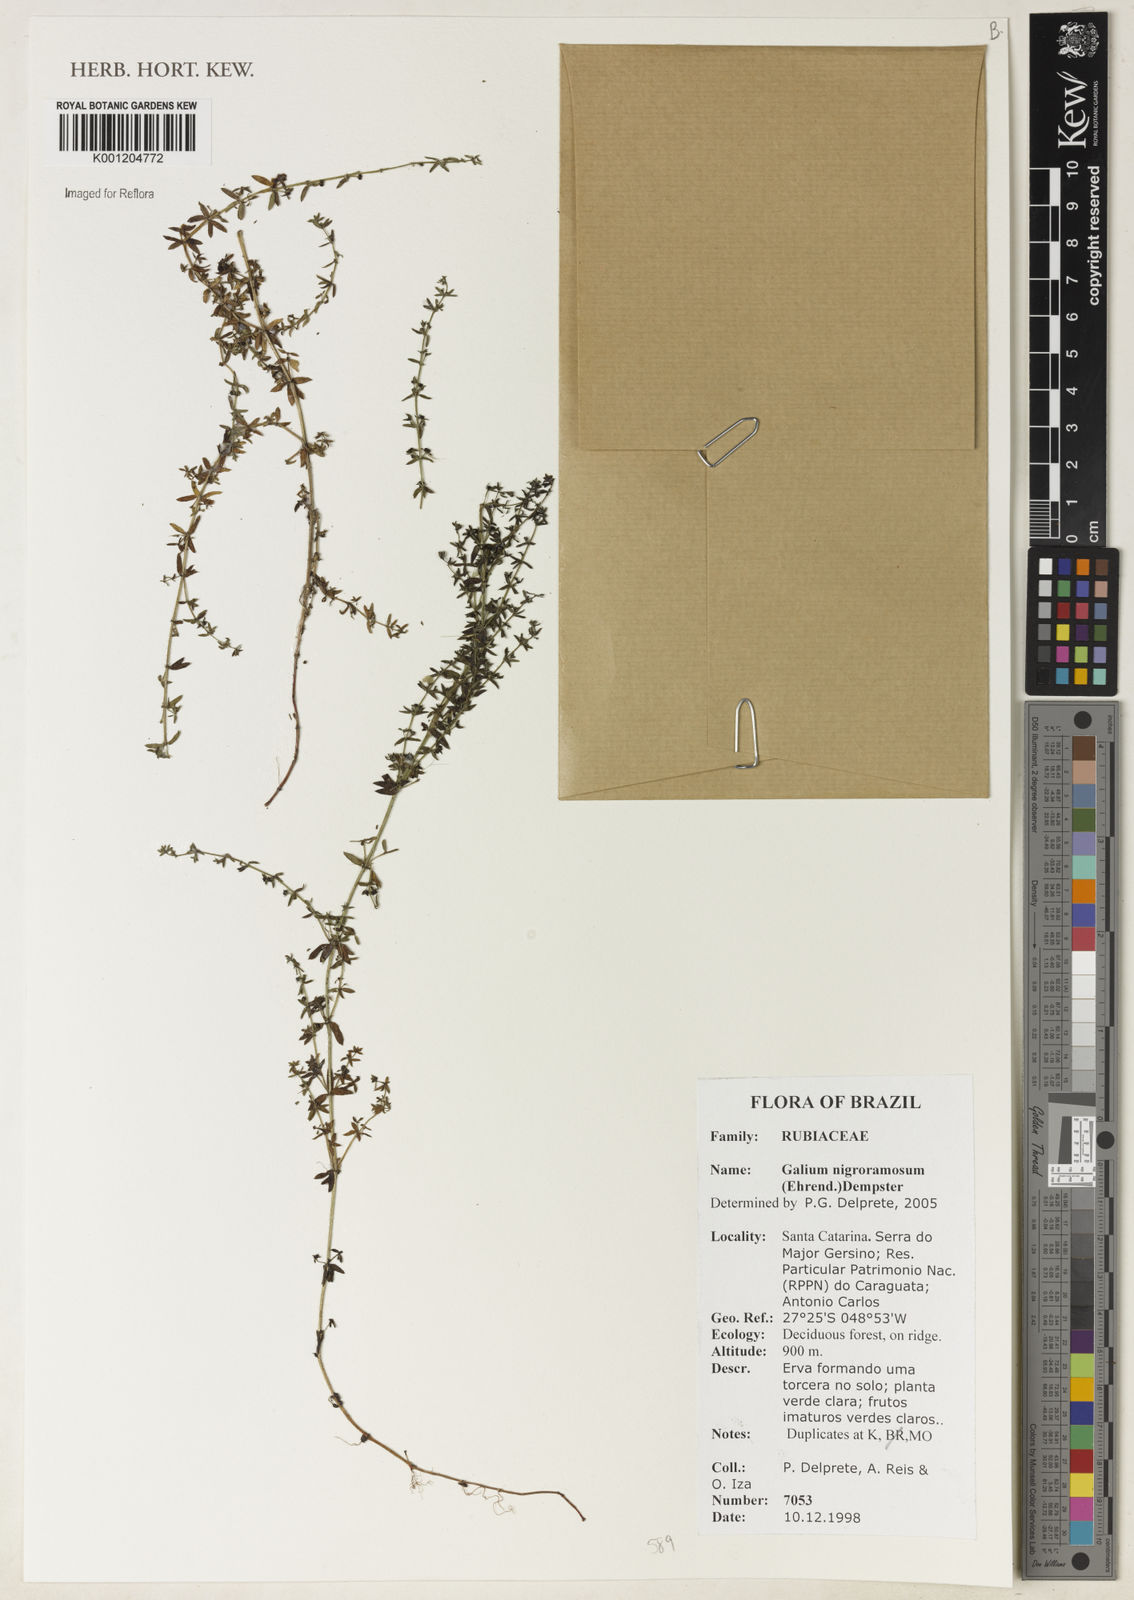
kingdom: Plantae
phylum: Tracheophyta
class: Magnoliopsida
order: Gentianales
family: Rubiaceae
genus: Galium
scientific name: Galium nigroramosum
